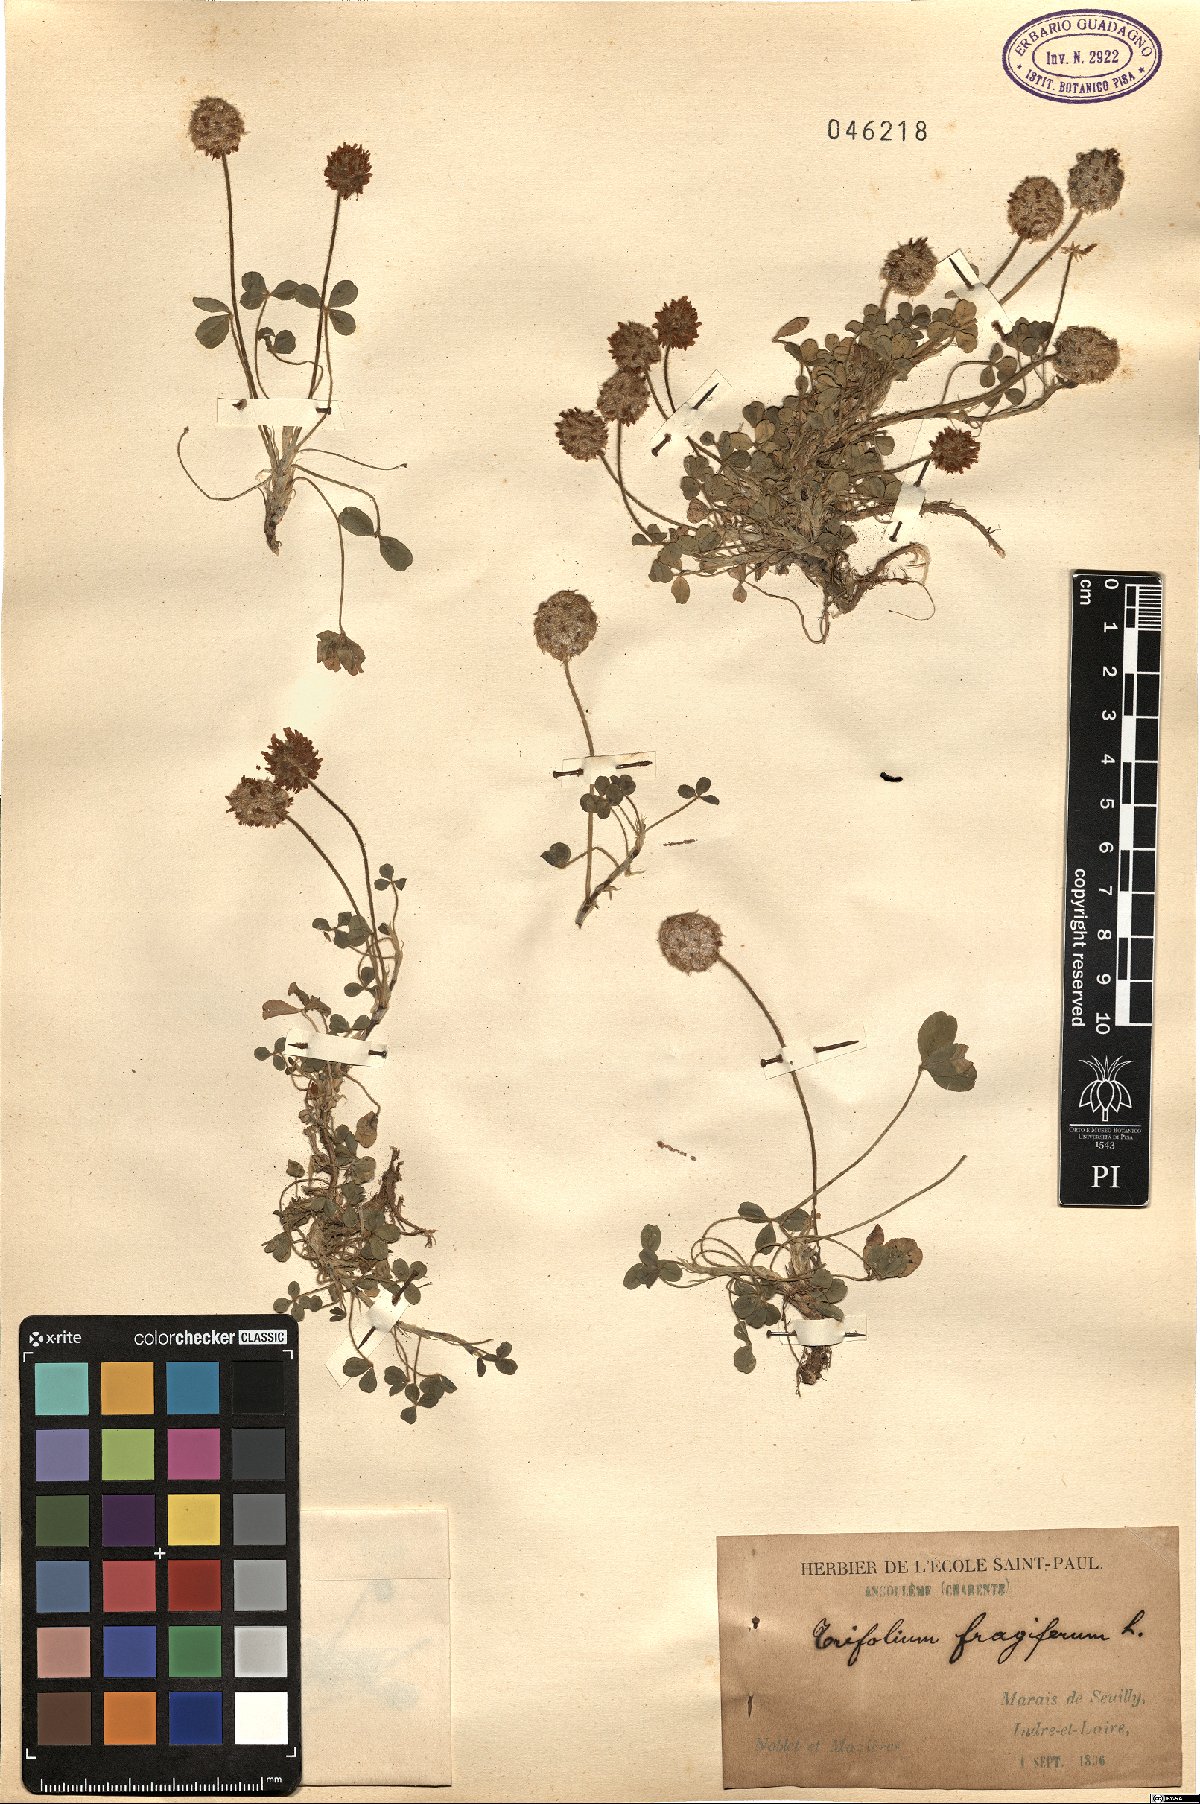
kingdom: Plantae
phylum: Tracheophyta
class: Magnoliopsida
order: Fabales
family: Fabaceae
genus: Trifolium
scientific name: Trifolium fragiferum
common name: Strawberry clover
